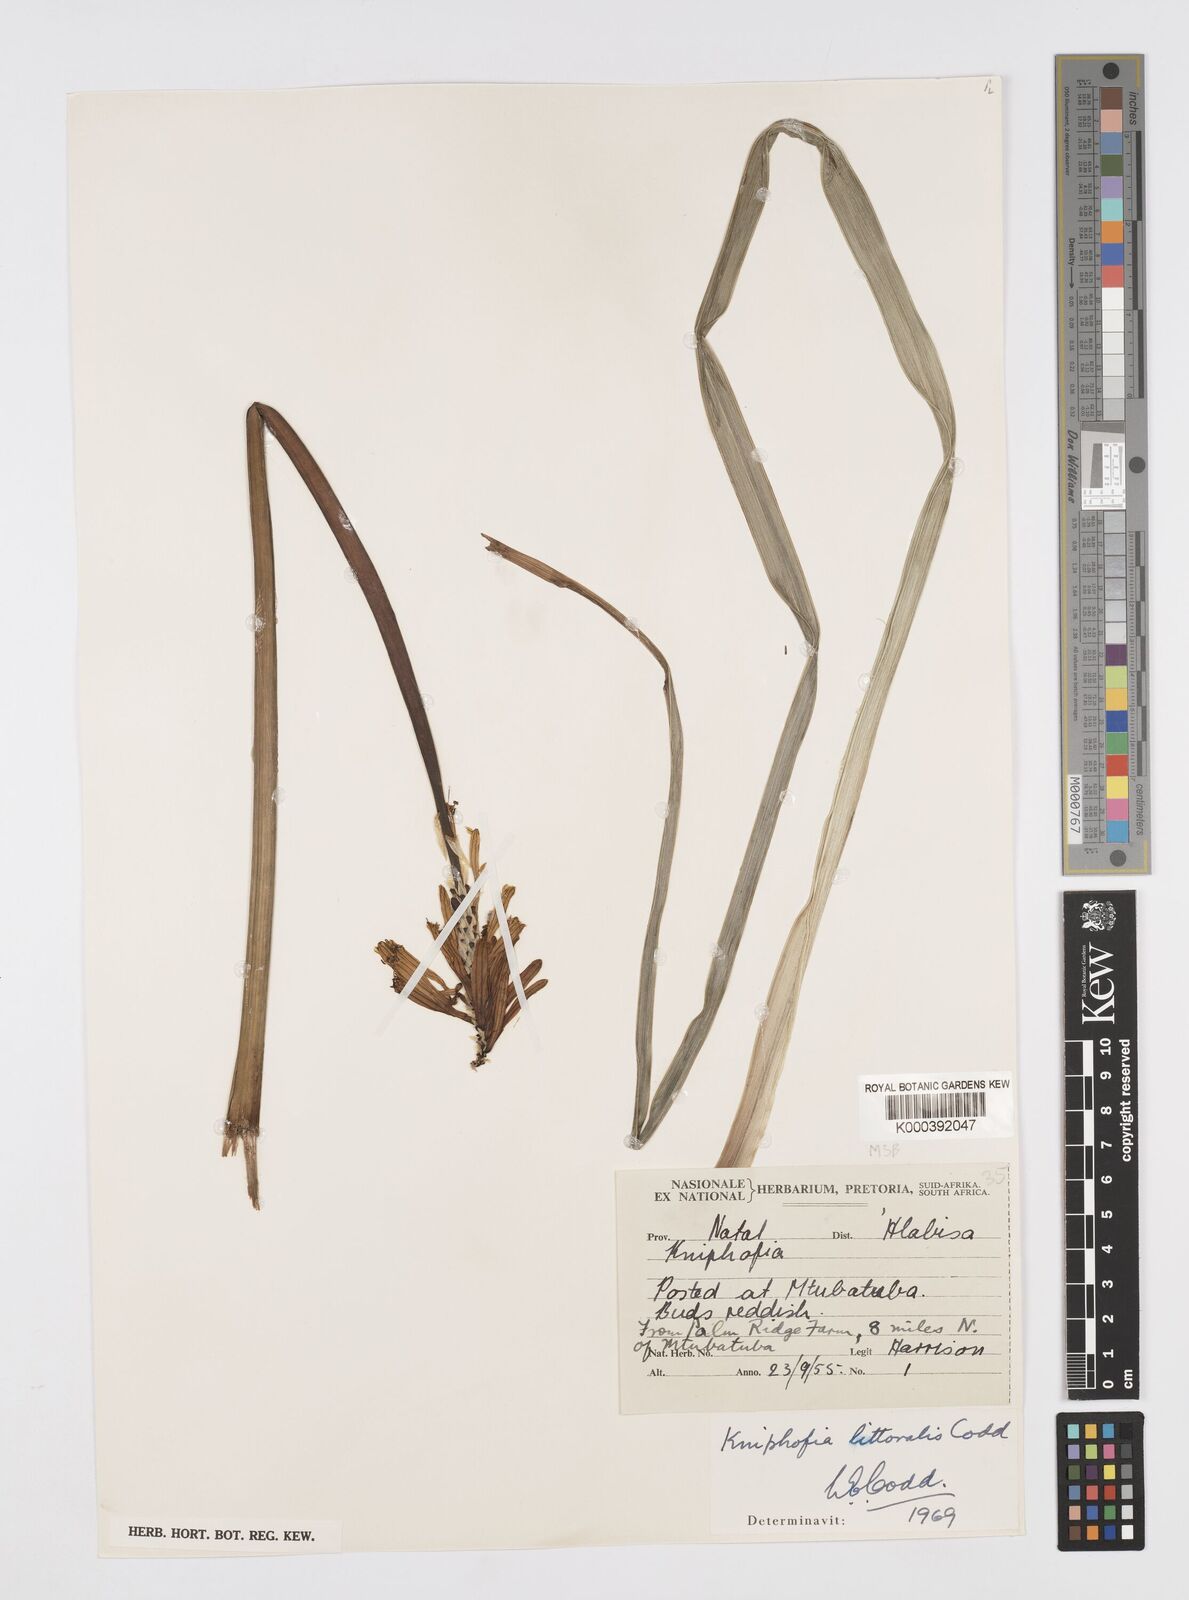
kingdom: Plantae
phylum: Tracheophyta
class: Liliopsida
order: Asparagales
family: Asphodelaceae
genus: Kniphofia
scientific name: Kniphofia littoralis
